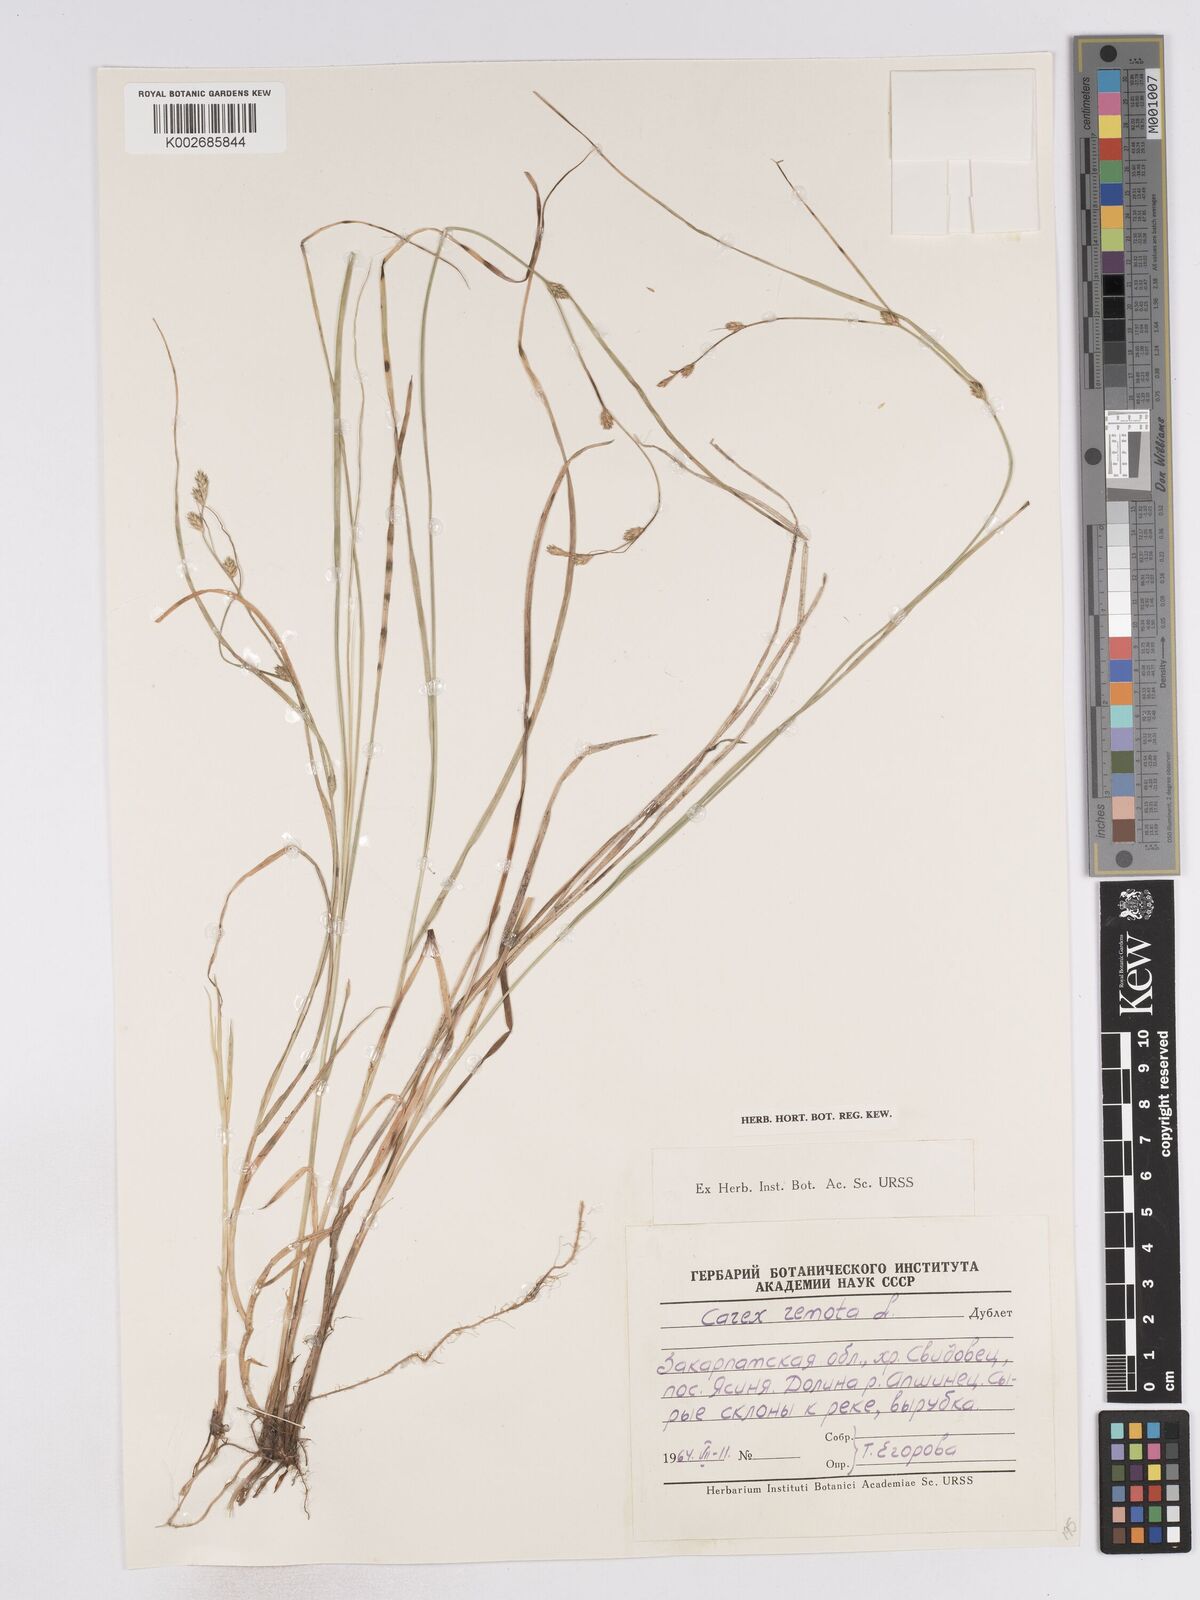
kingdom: Plantae
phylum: Tracheophyta
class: Liliopsida
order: Poales
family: Cyperaceae
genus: Carex
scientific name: Carex remota
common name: Remote sedge
